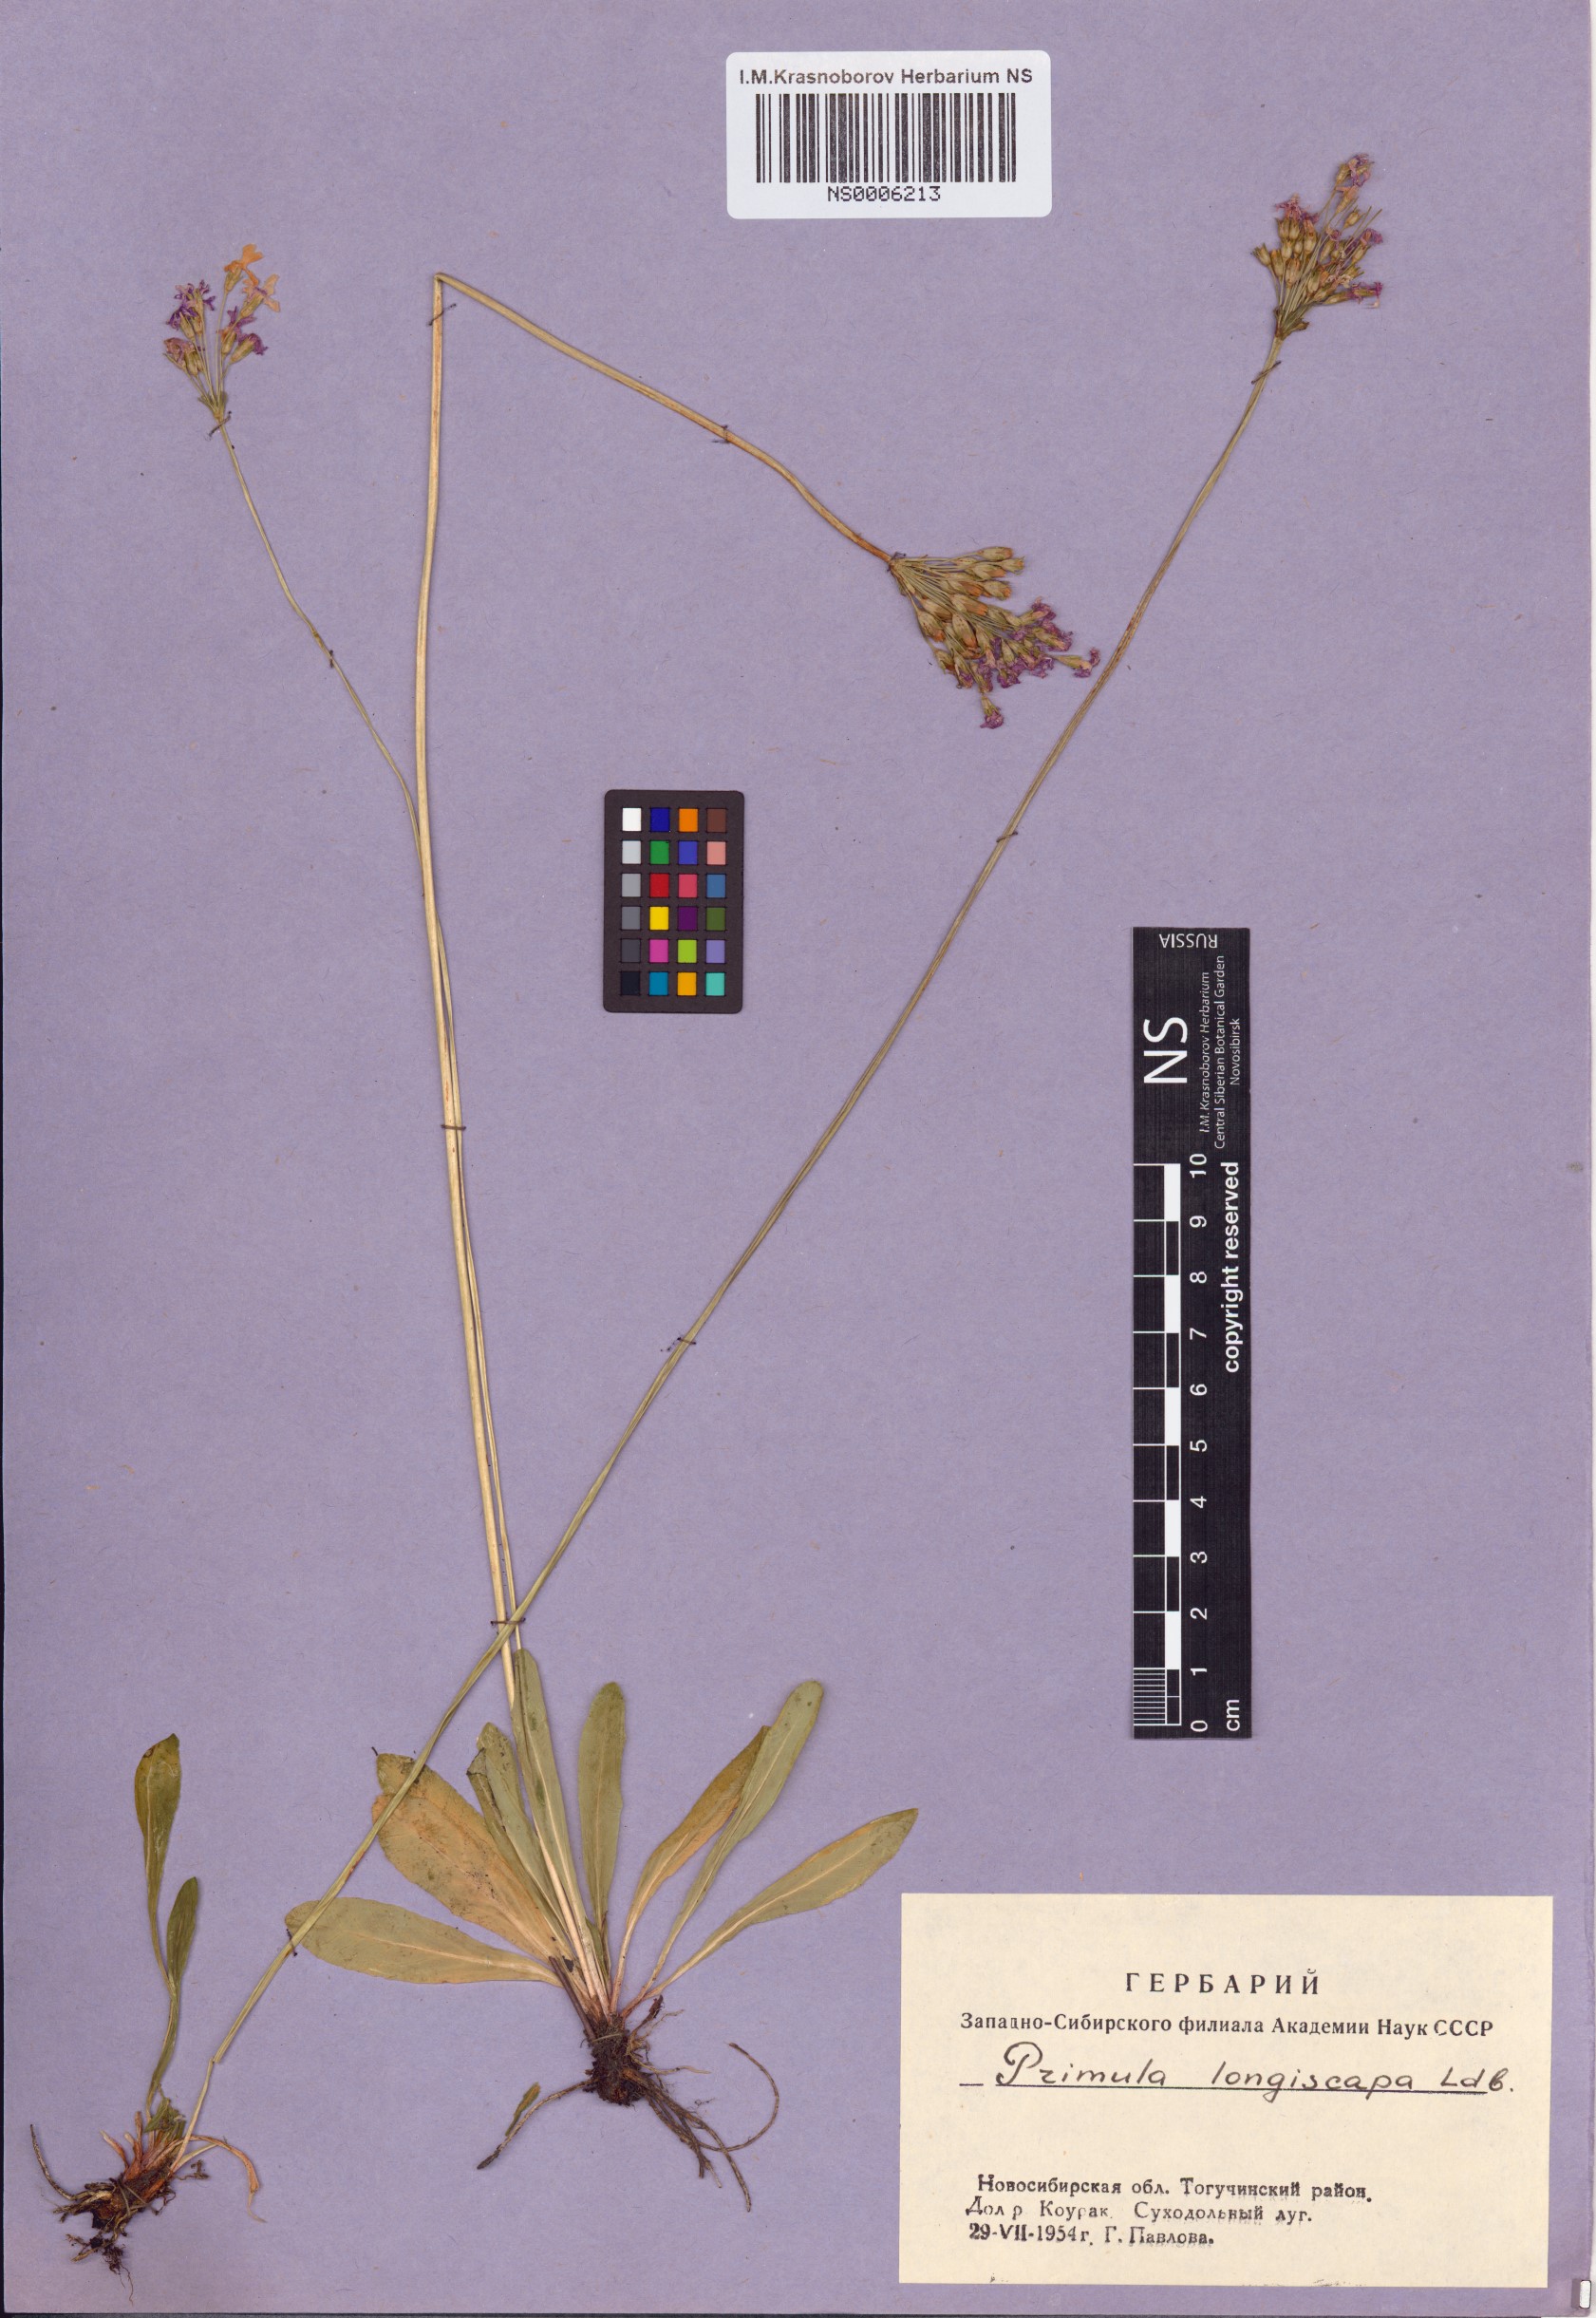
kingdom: Plantae
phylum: Tracheophyta
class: Magnoliopsida
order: Ericales
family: Primulaceae
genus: Primula
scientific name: Primula longiscapa
